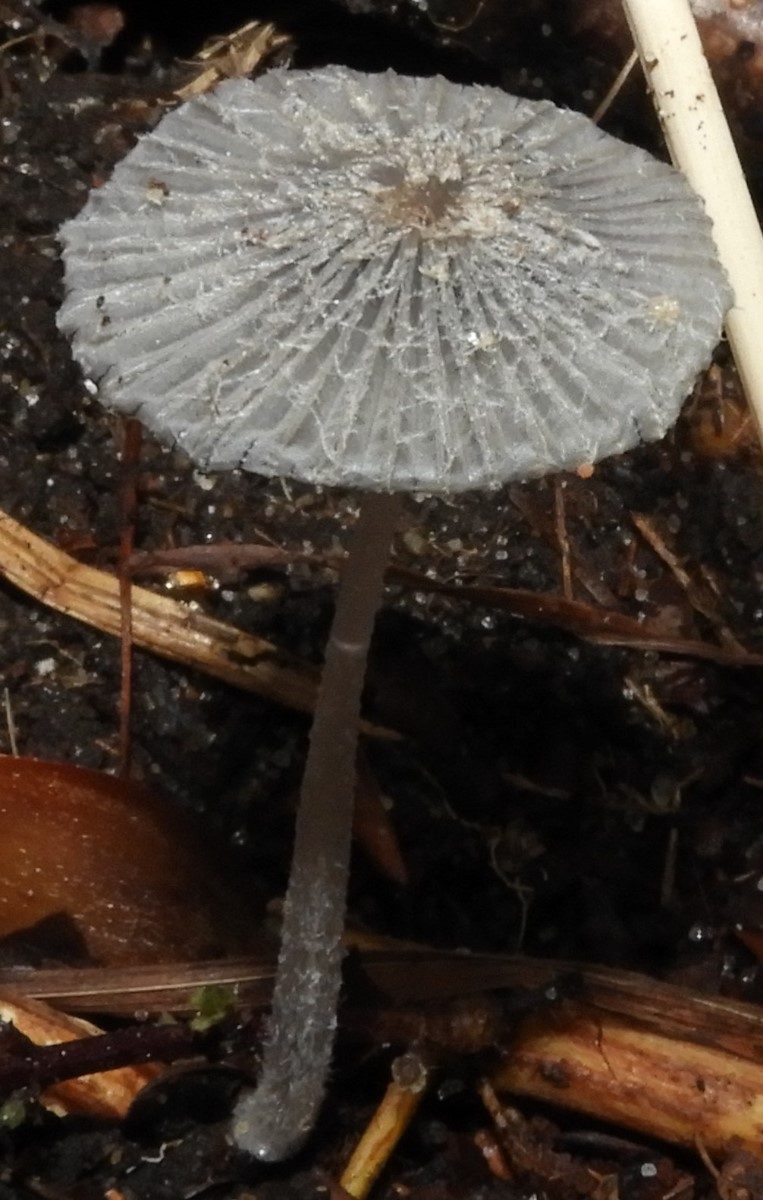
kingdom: Fungi
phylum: Basidiomycota
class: Agaricomycetes
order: Agaricales
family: Psathyrellaceae
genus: Coprinopsis
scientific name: Coprinopsis
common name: blækhat
